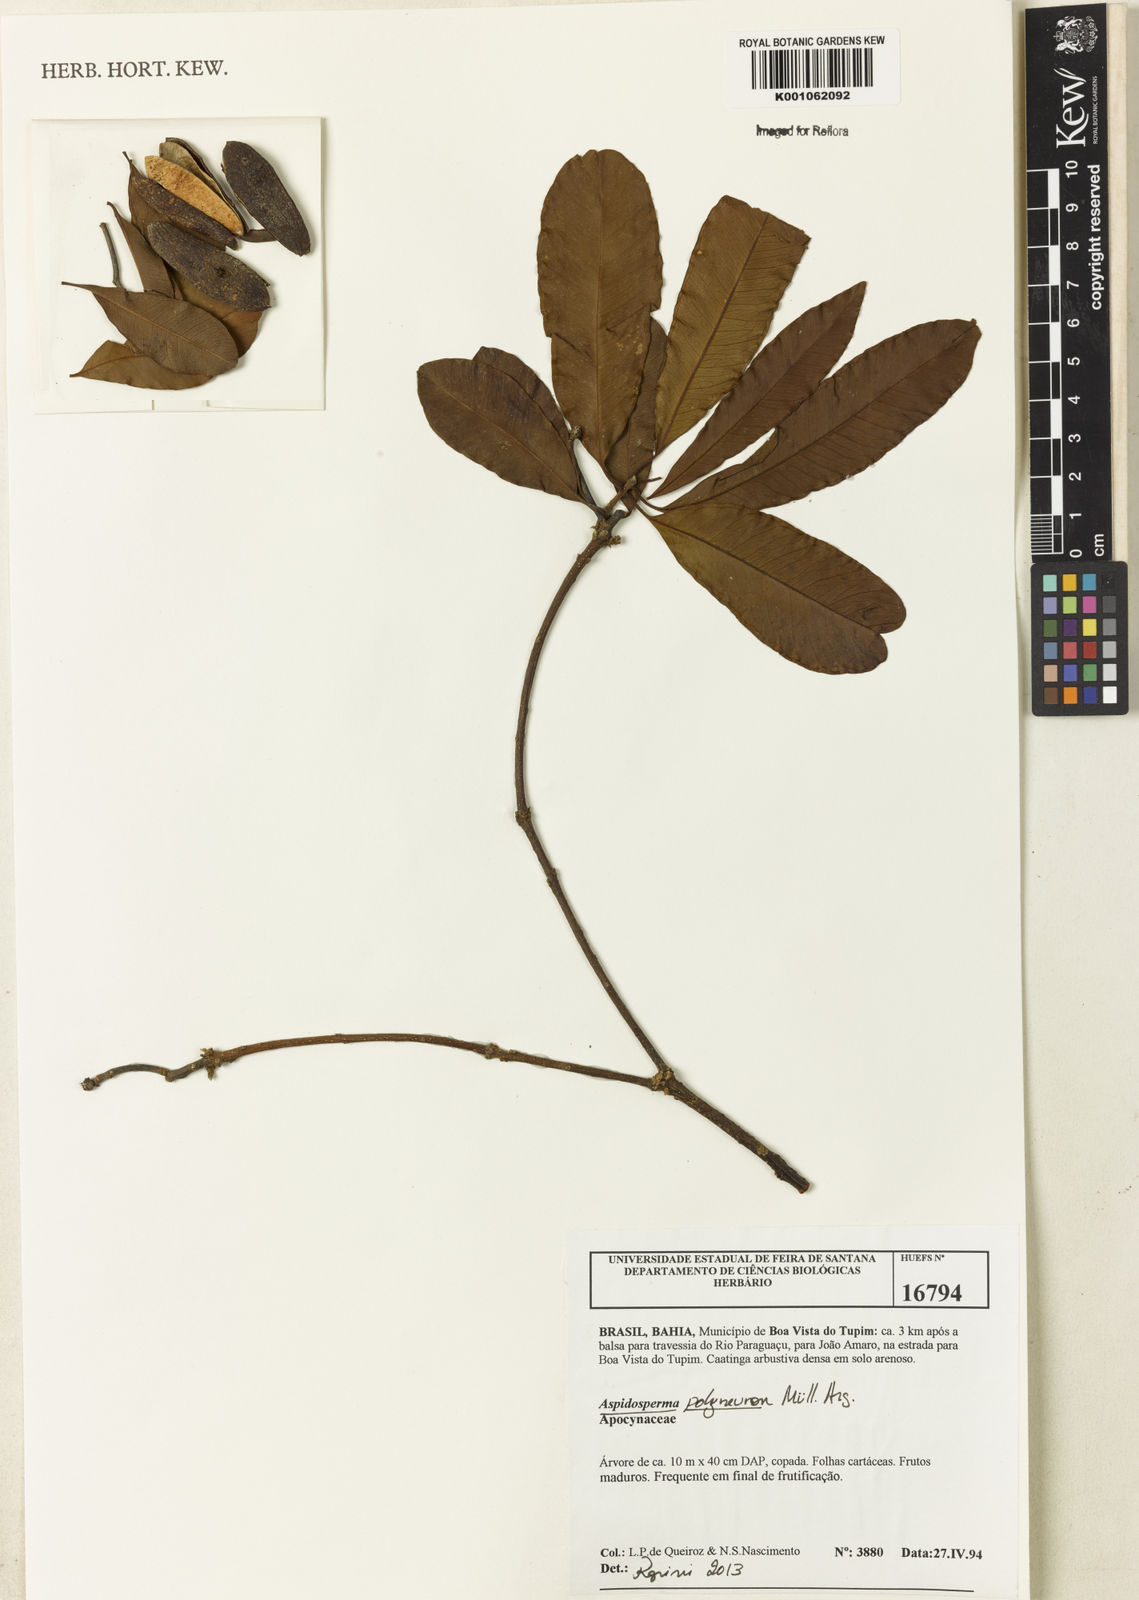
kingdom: Plantae
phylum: Tracheophyta
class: Magnoliopsida
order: Gentianales
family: Apocynaceae
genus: Aspidosperma
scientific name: Aspidosperma
